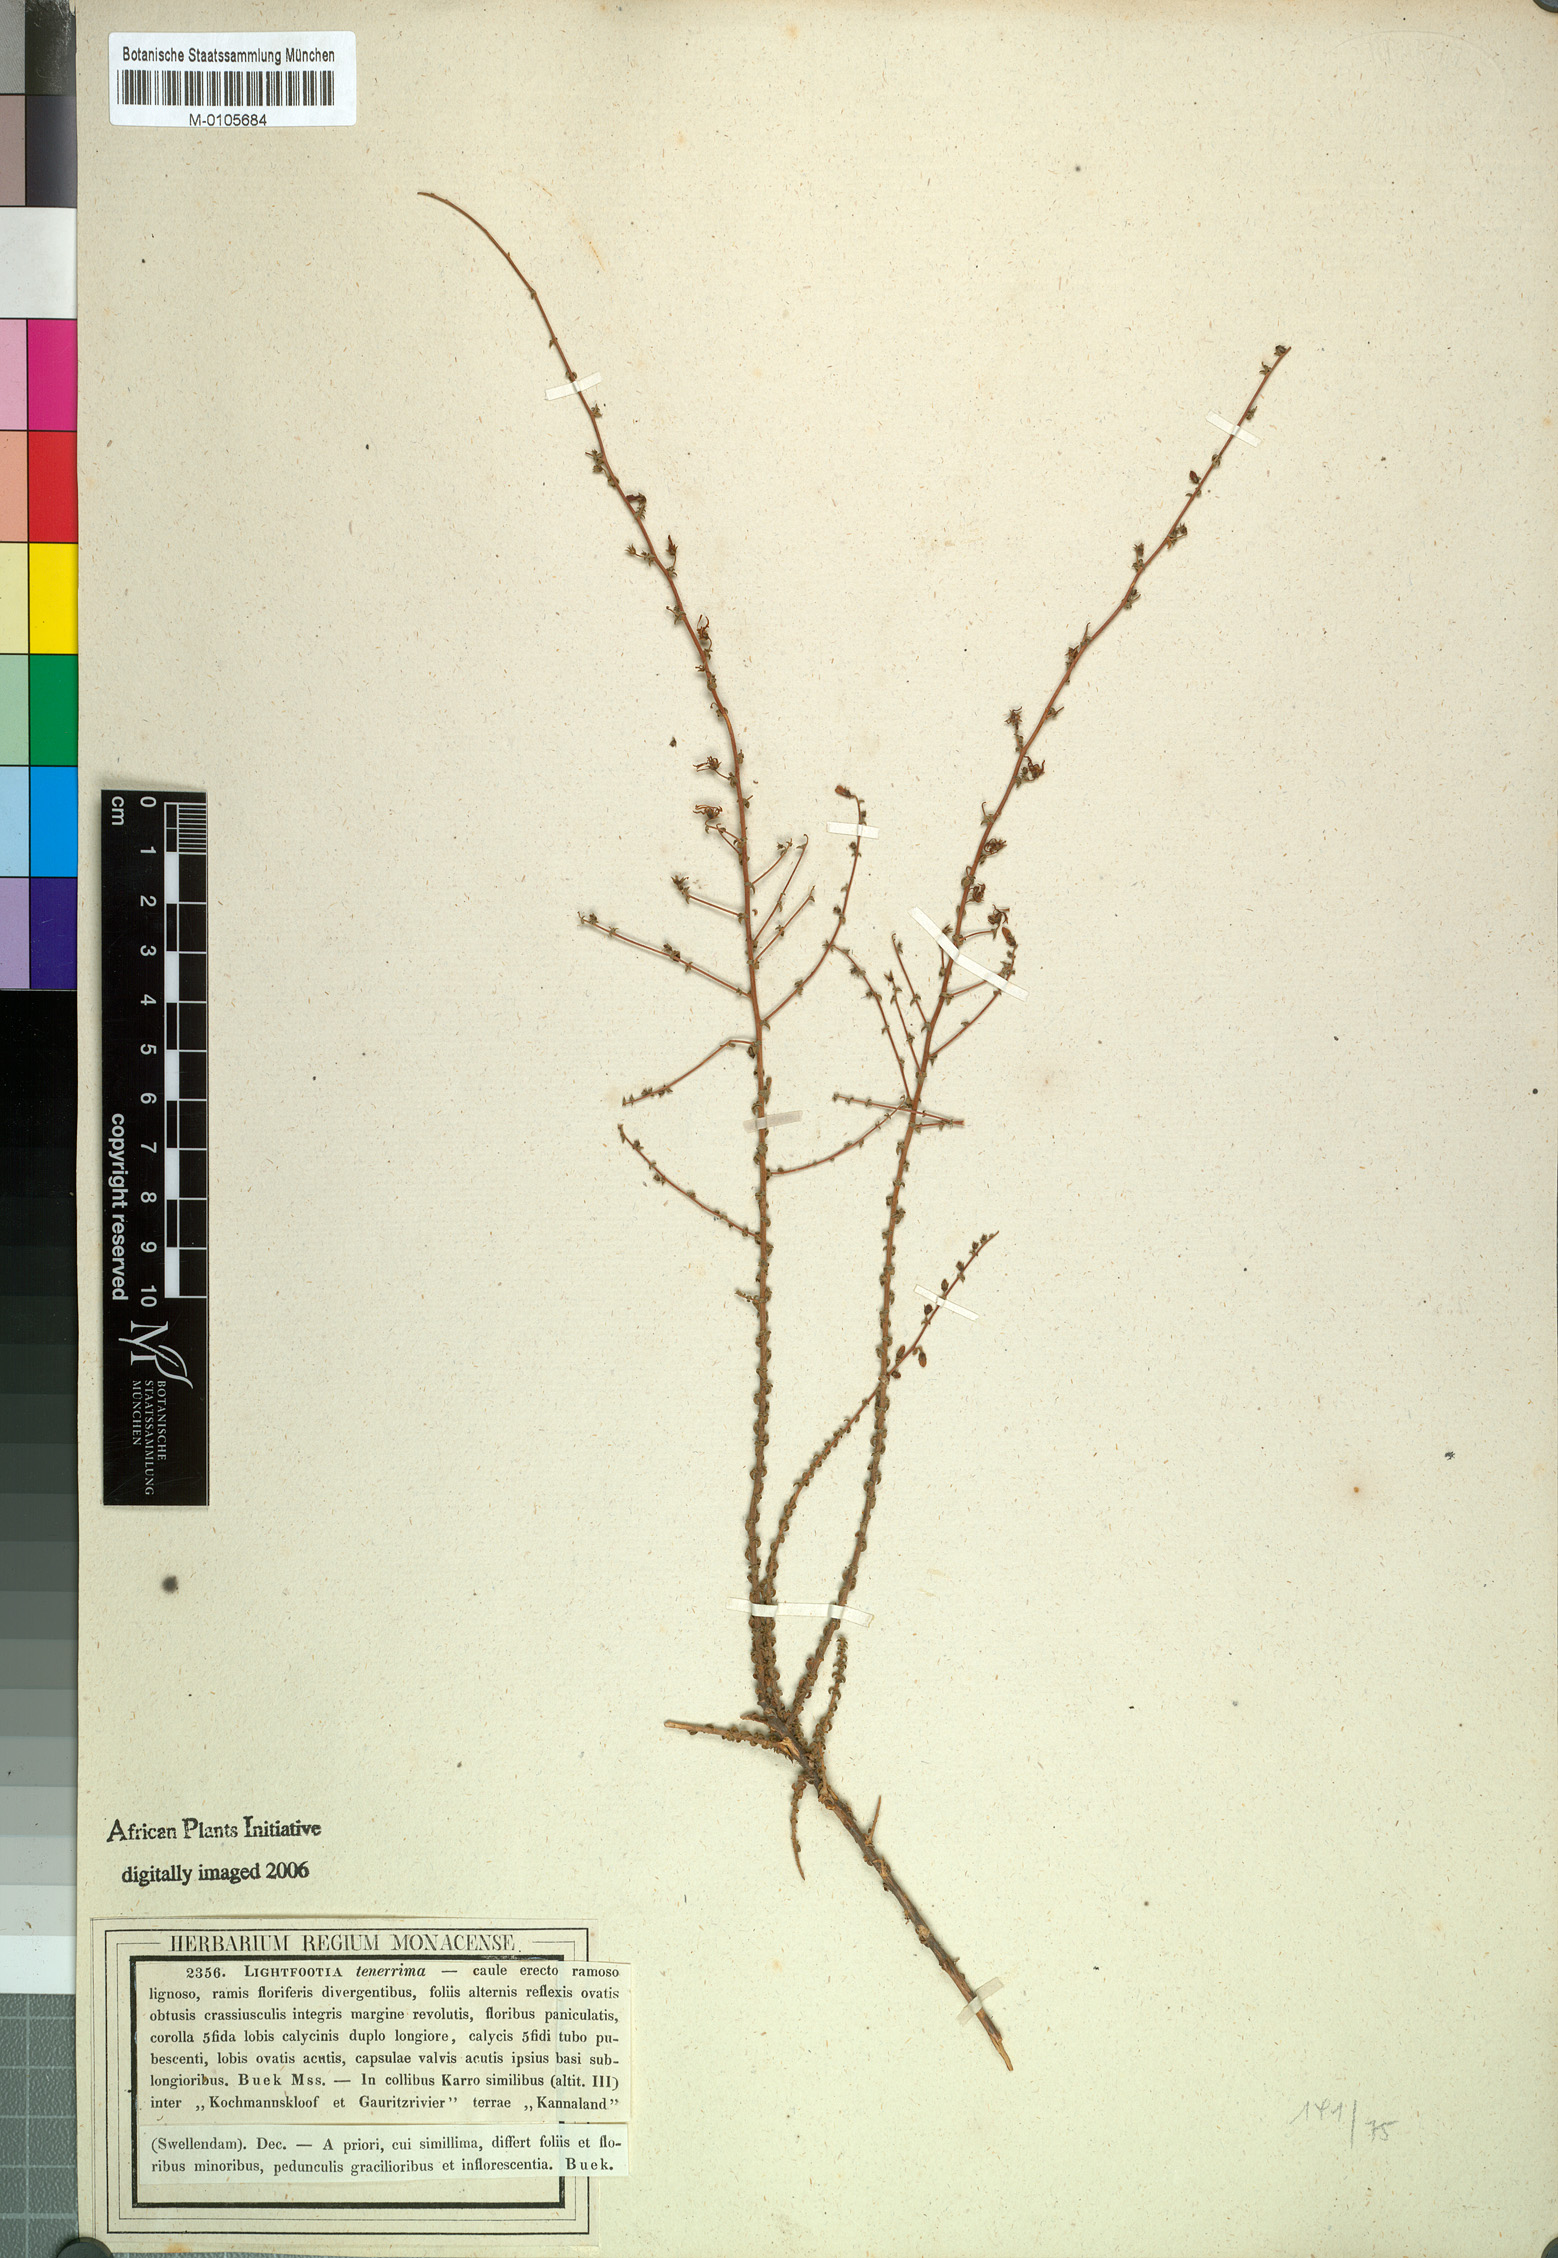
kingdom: Plantae
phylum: Tracheophyta
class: Magnoliopsida
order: Asterales
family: Campanulaceae
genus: Wahlenbergia
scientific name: Wahlenbergia loddigesii
